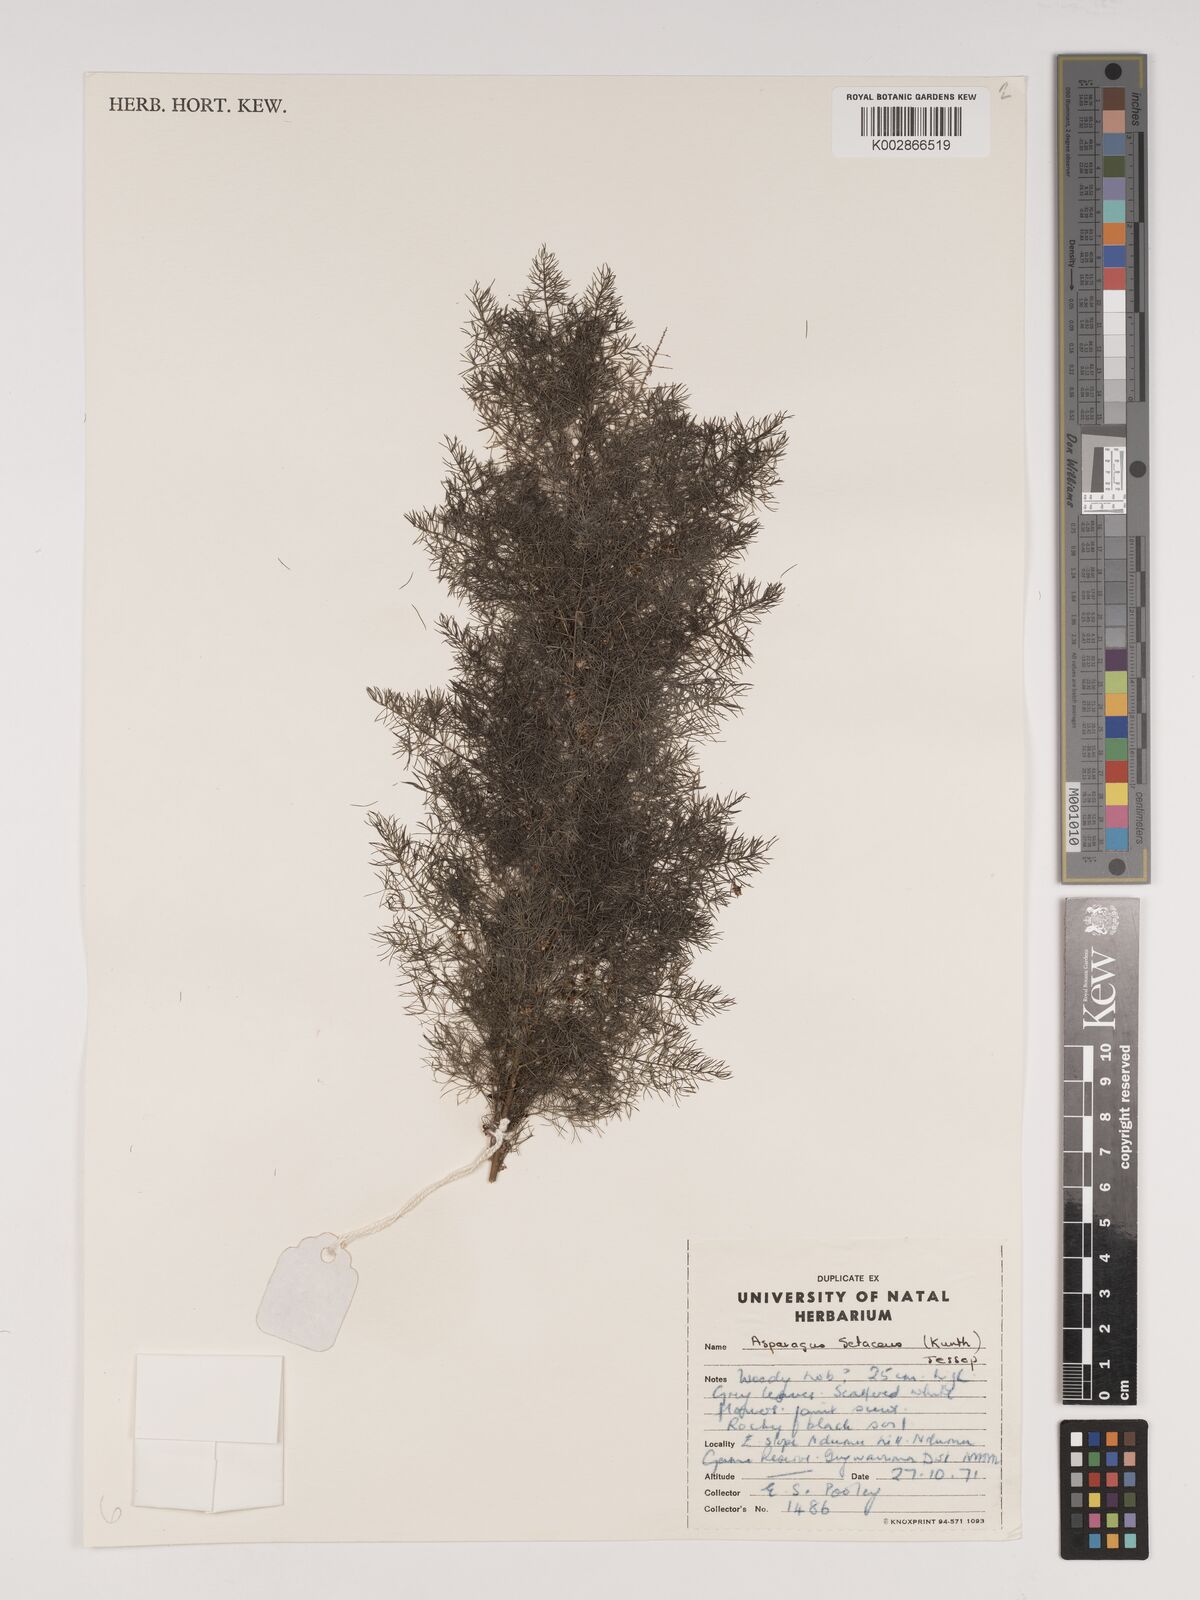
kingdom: Plantae
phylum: Tracheophyta
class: Liliopsida
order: Asparagales
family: Asparagaceae
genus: Asparagus
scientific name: Asparagus setaceus
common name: Common asparagus fern
